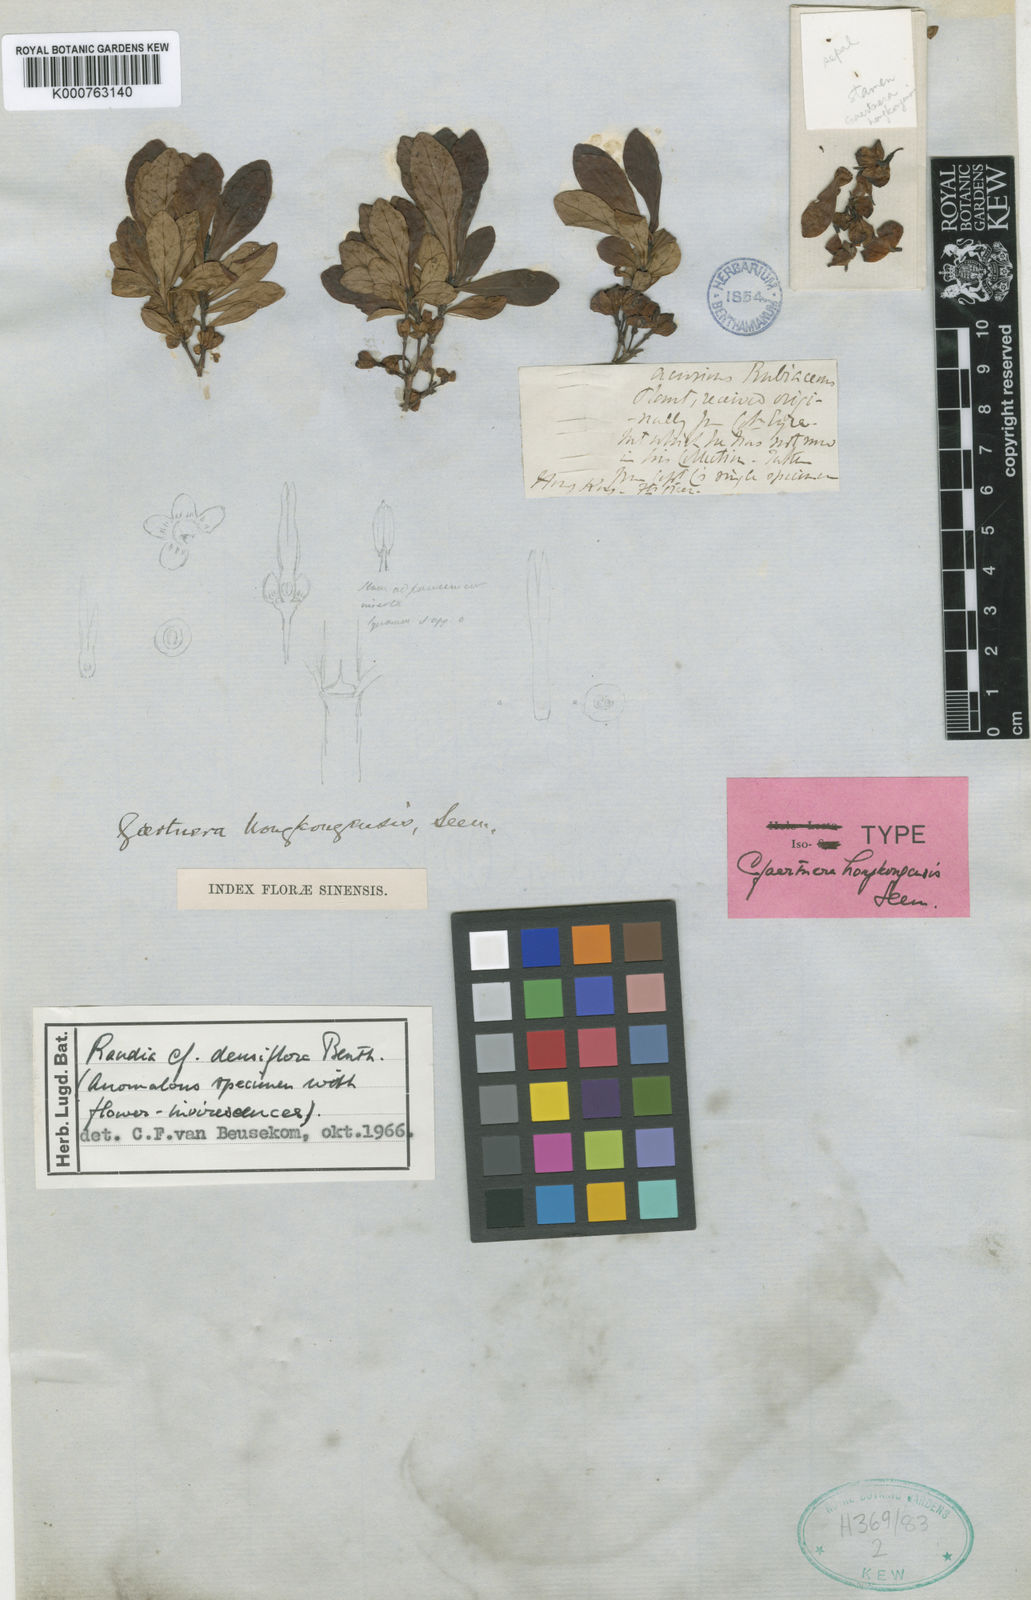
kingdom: Plantae
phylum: Tracheophyta
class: Magnoliopsida
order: Gentianales
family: Rubiaceae
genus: Ixora
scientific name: Ixora chinensis
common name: Chinese ixora
